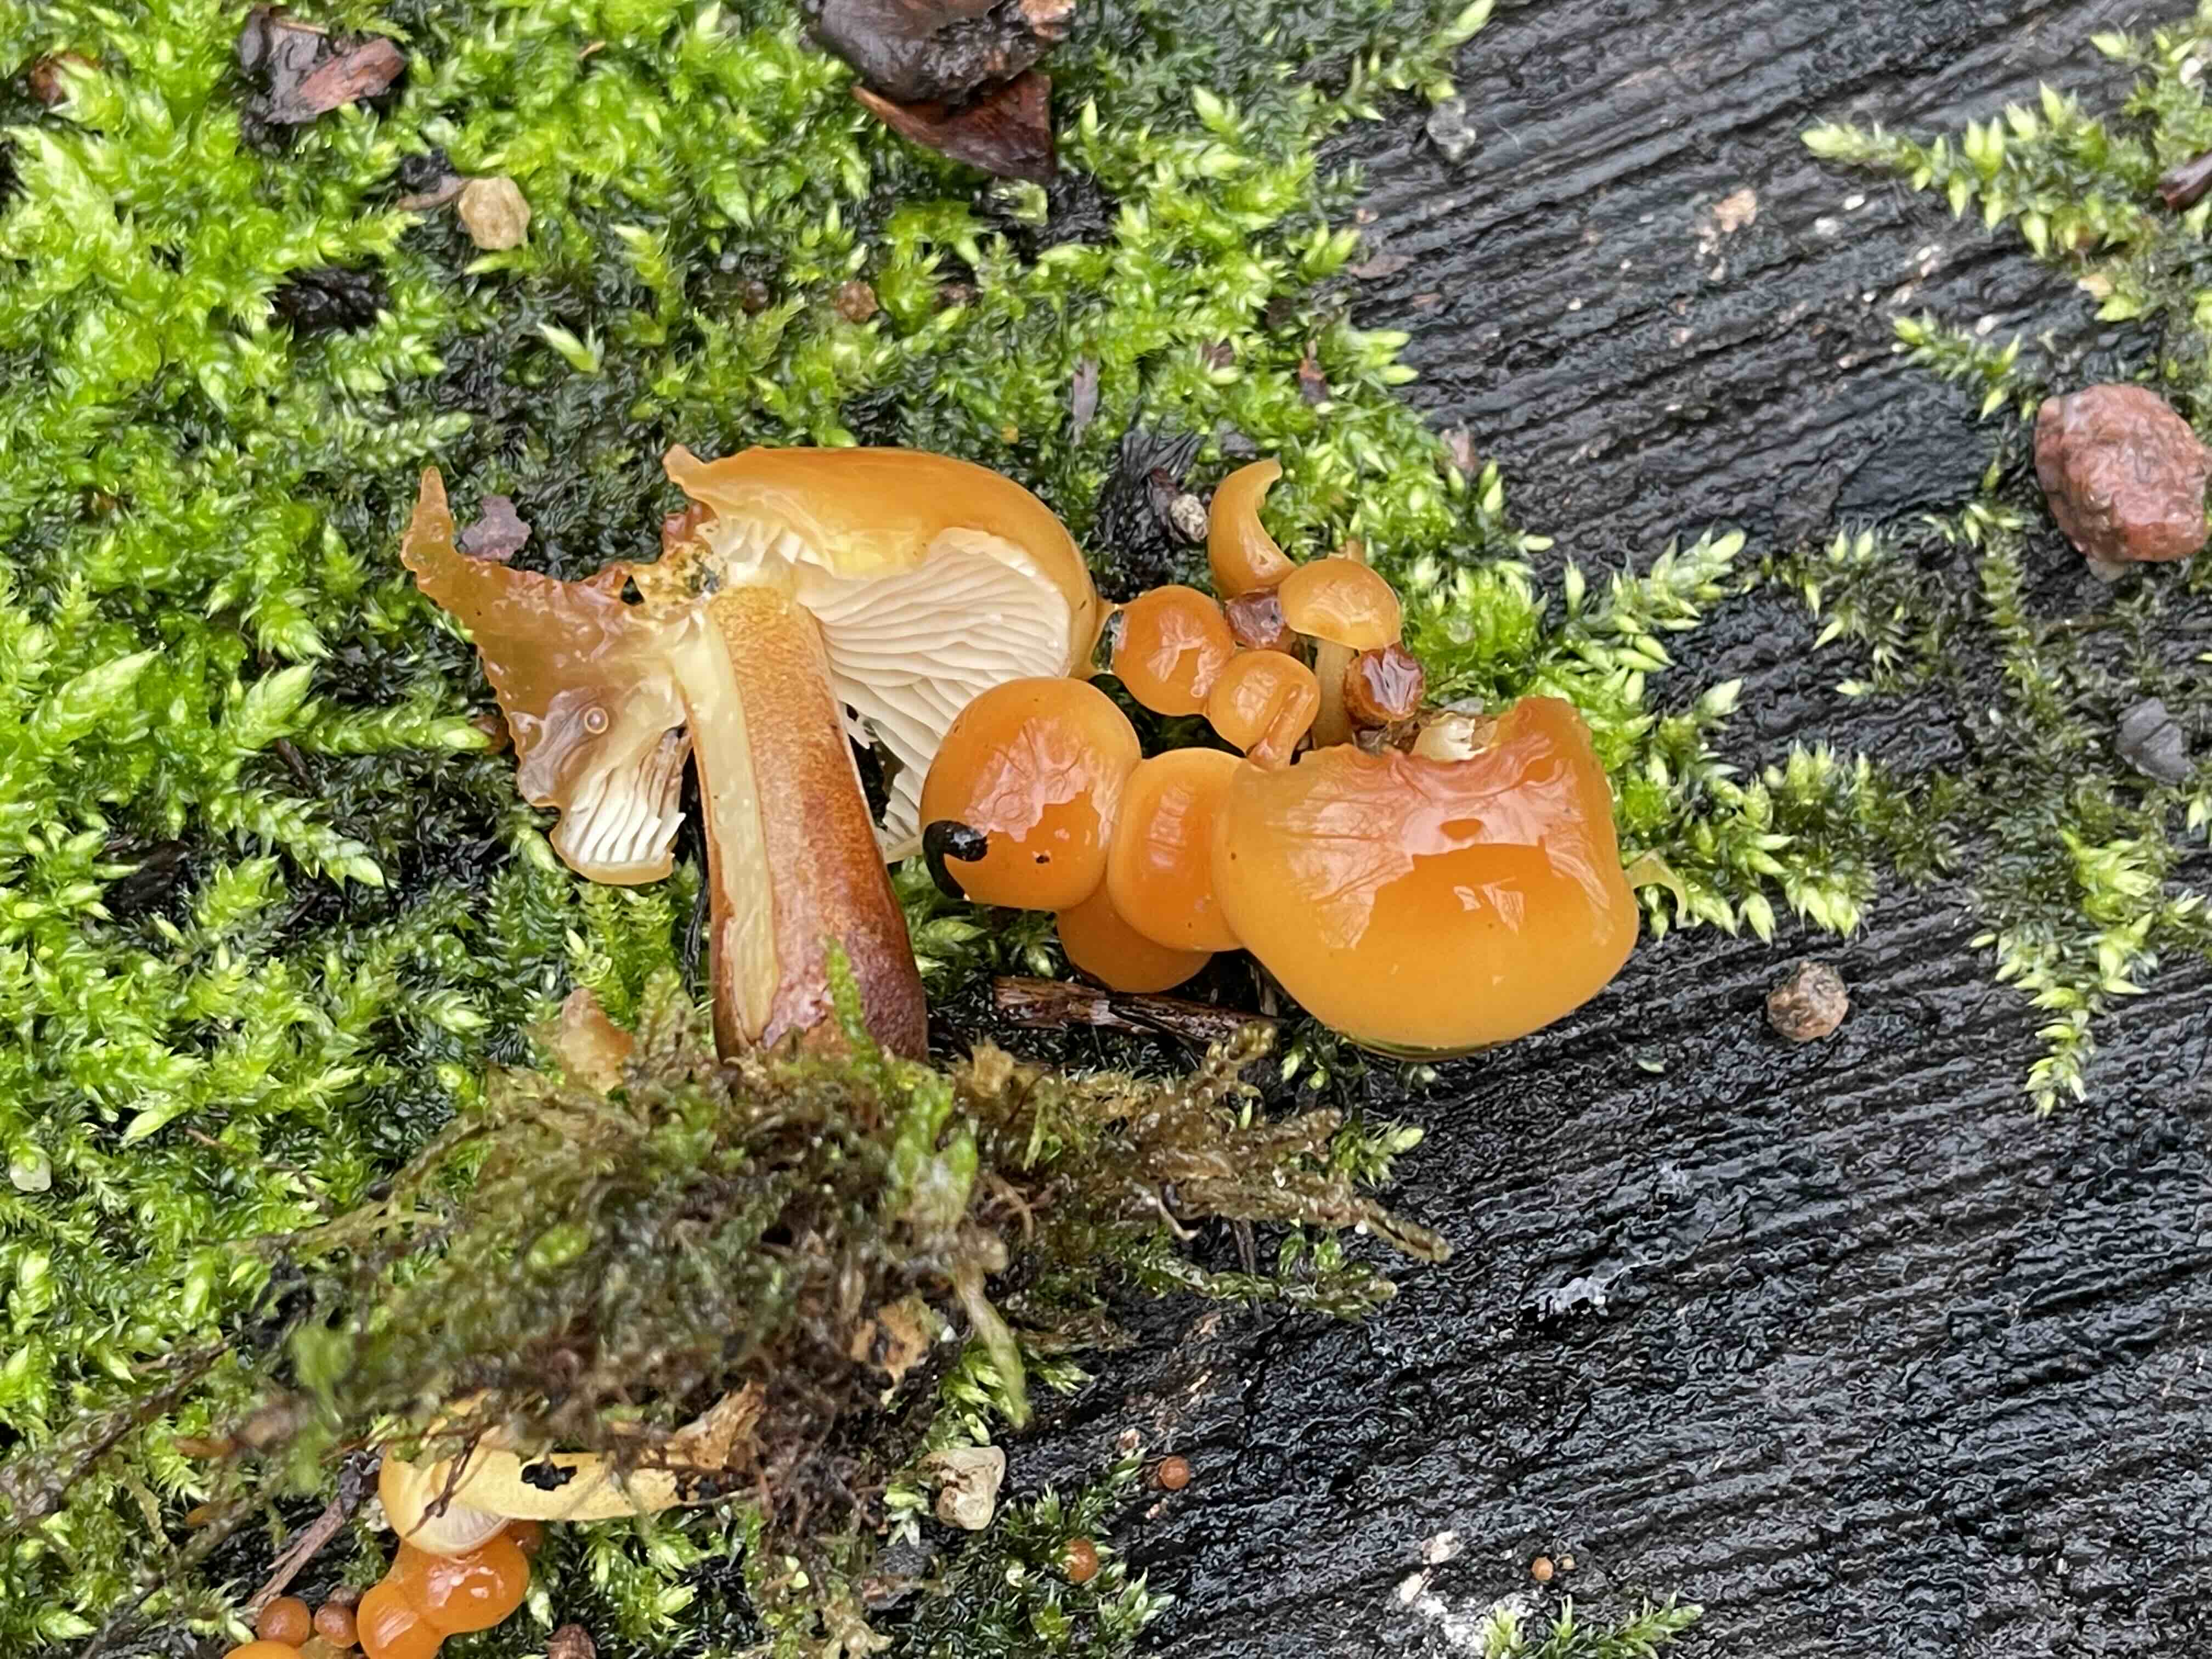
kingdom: Fungi
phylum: Basidiomycota
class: Agaricomycetes
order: Agaricales
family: Physalacriaceae
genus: Flammulina
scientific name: Flammulina velutipes
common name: gul fløjlsfod
